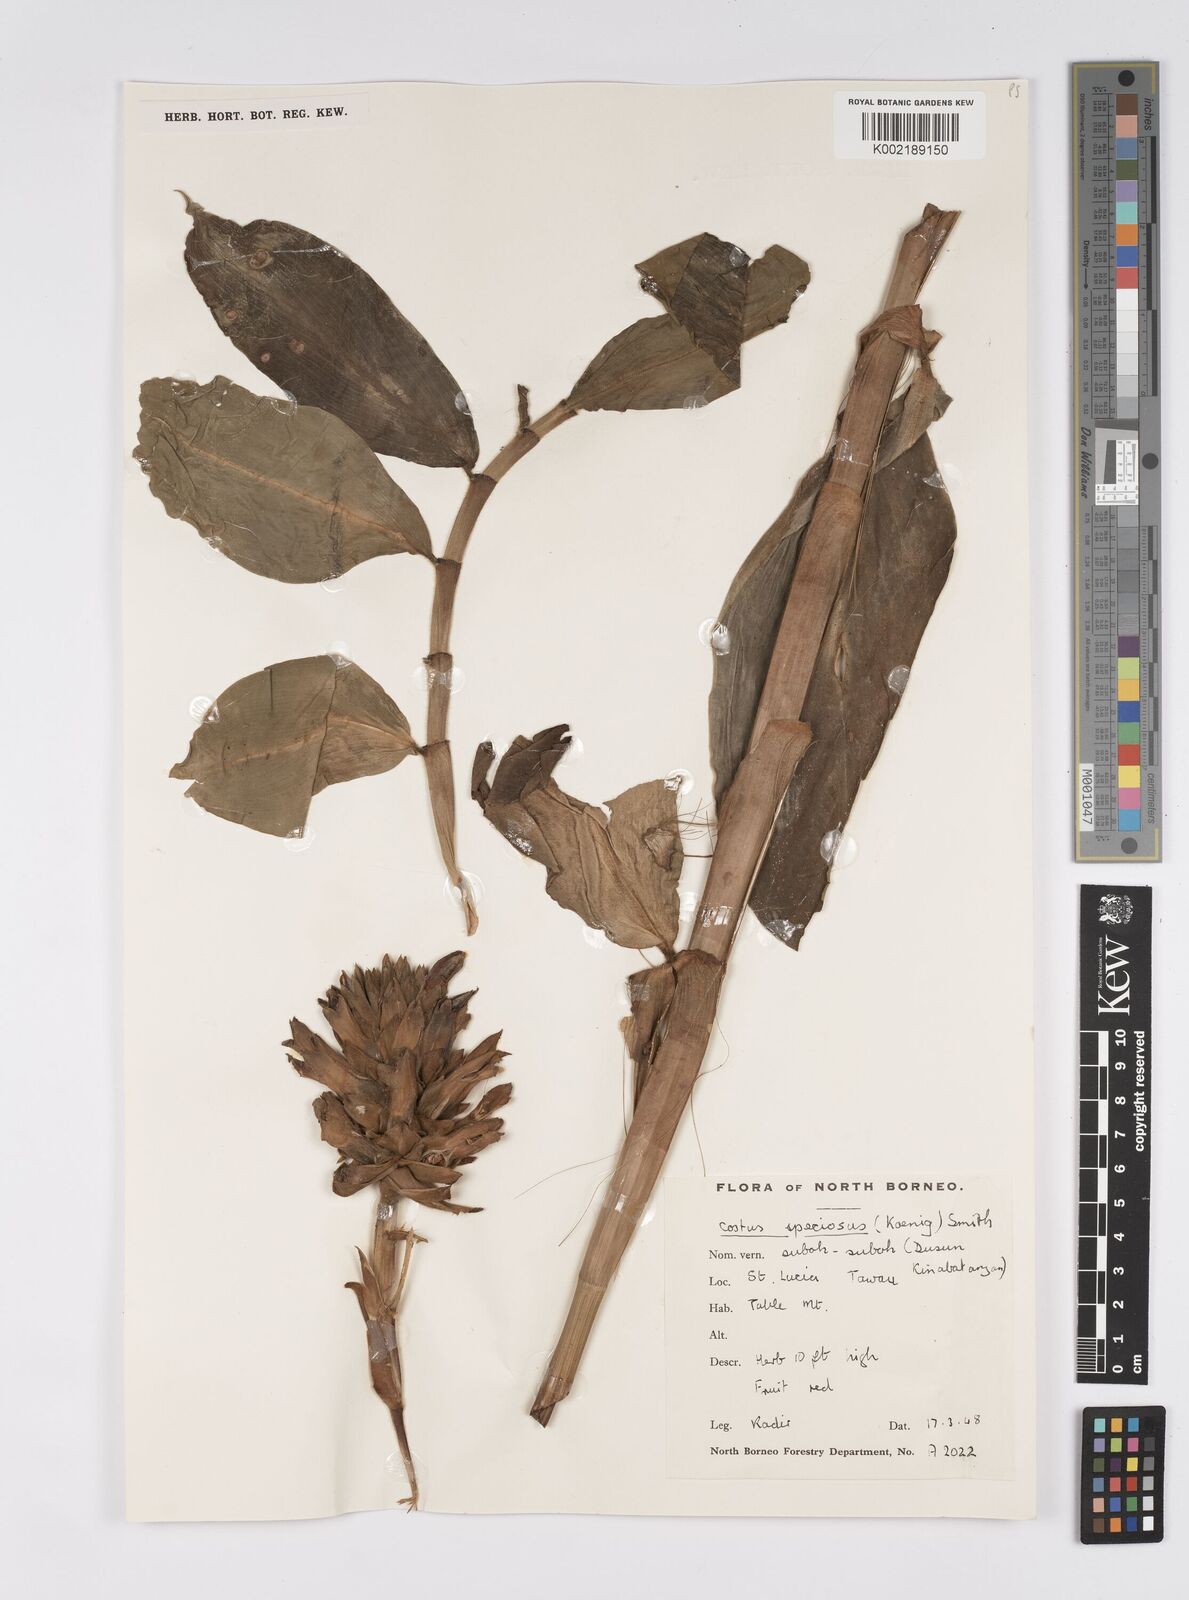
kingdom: Plantae
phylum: Tracheophyta
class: Liliopsida
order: Zingiberales
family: Costaceae
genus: Hellenia
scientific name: Hellenia speciosa
